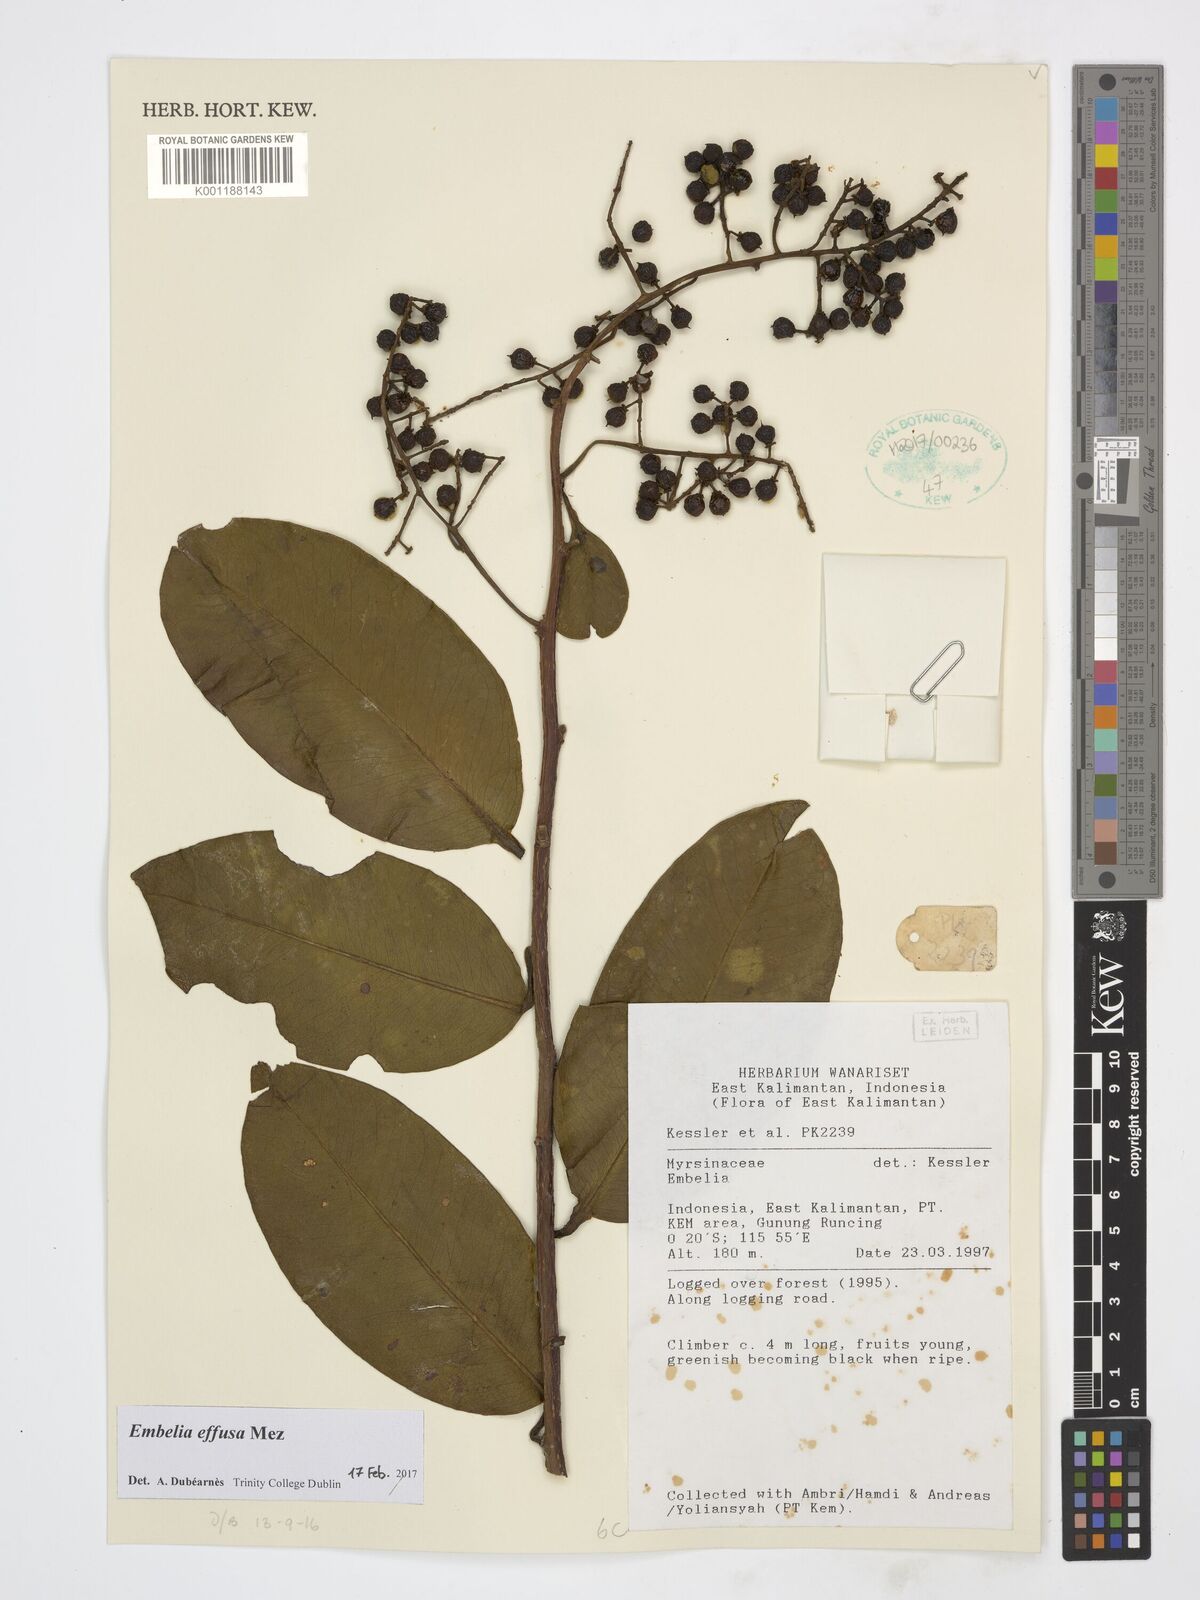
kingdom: Plantae
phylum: Tracheophyta
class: Magnoliopsida
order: Ericales
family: Primulaceae
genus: Embelia
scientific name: Embelia effusa
